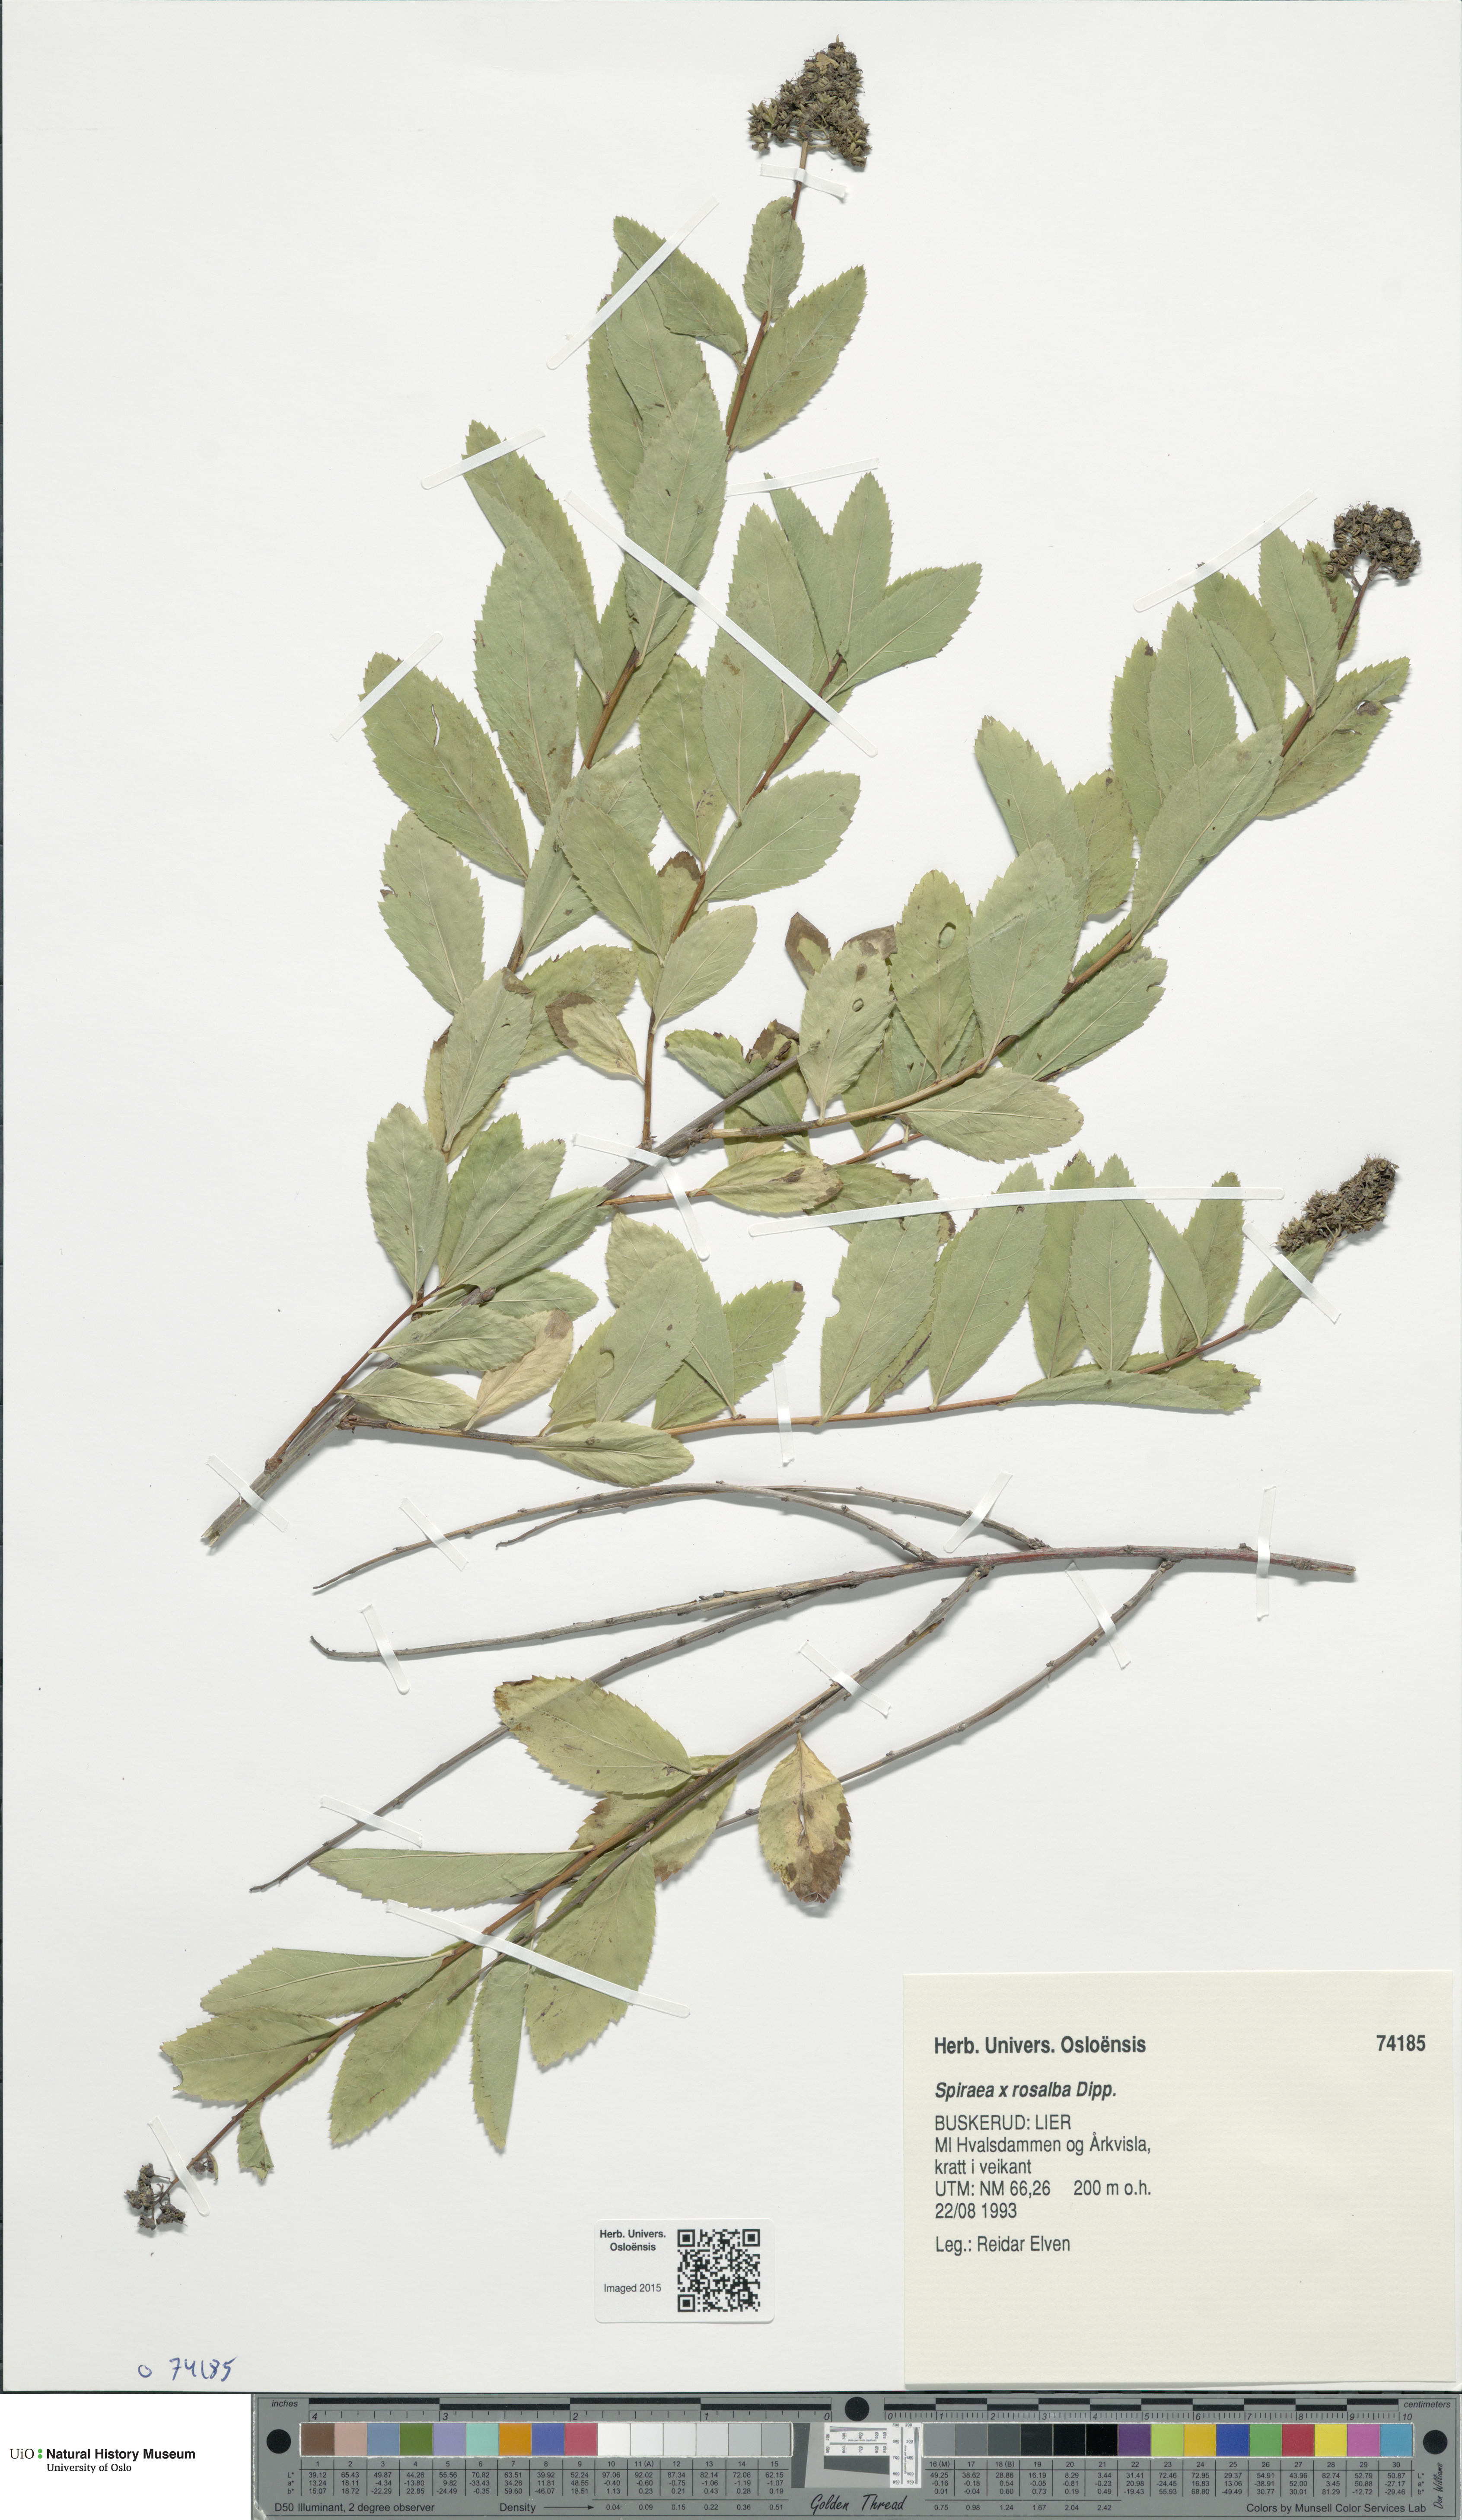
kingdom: Plantae
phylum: Tracheophyta
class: Magnoliopsida
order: Rosales
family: Rosaceae
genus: Spiraea
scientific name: Spiraea rosalba
